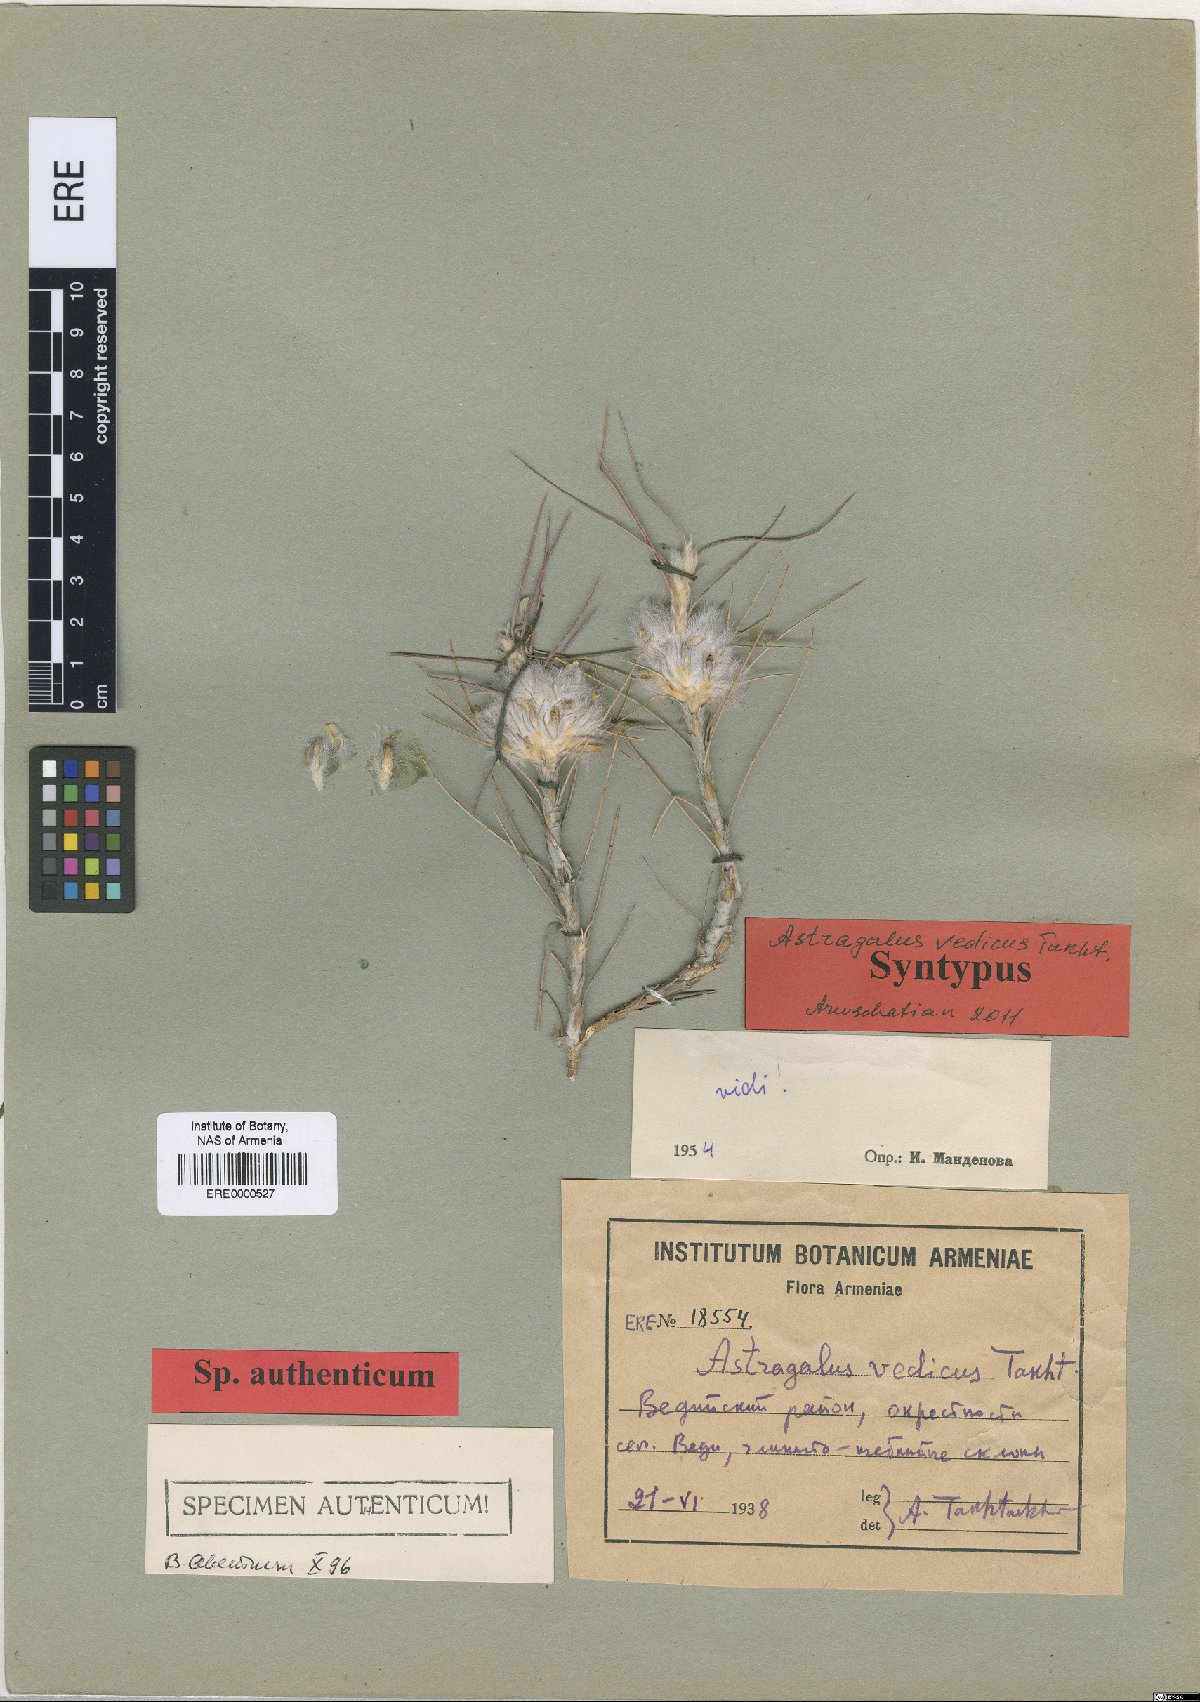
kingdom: Plantae
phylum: Tracheophyta
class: Magnoliopsida
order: Fabales
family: Fabaceae
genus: Astragalus
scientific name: Astragalus polyanthus
